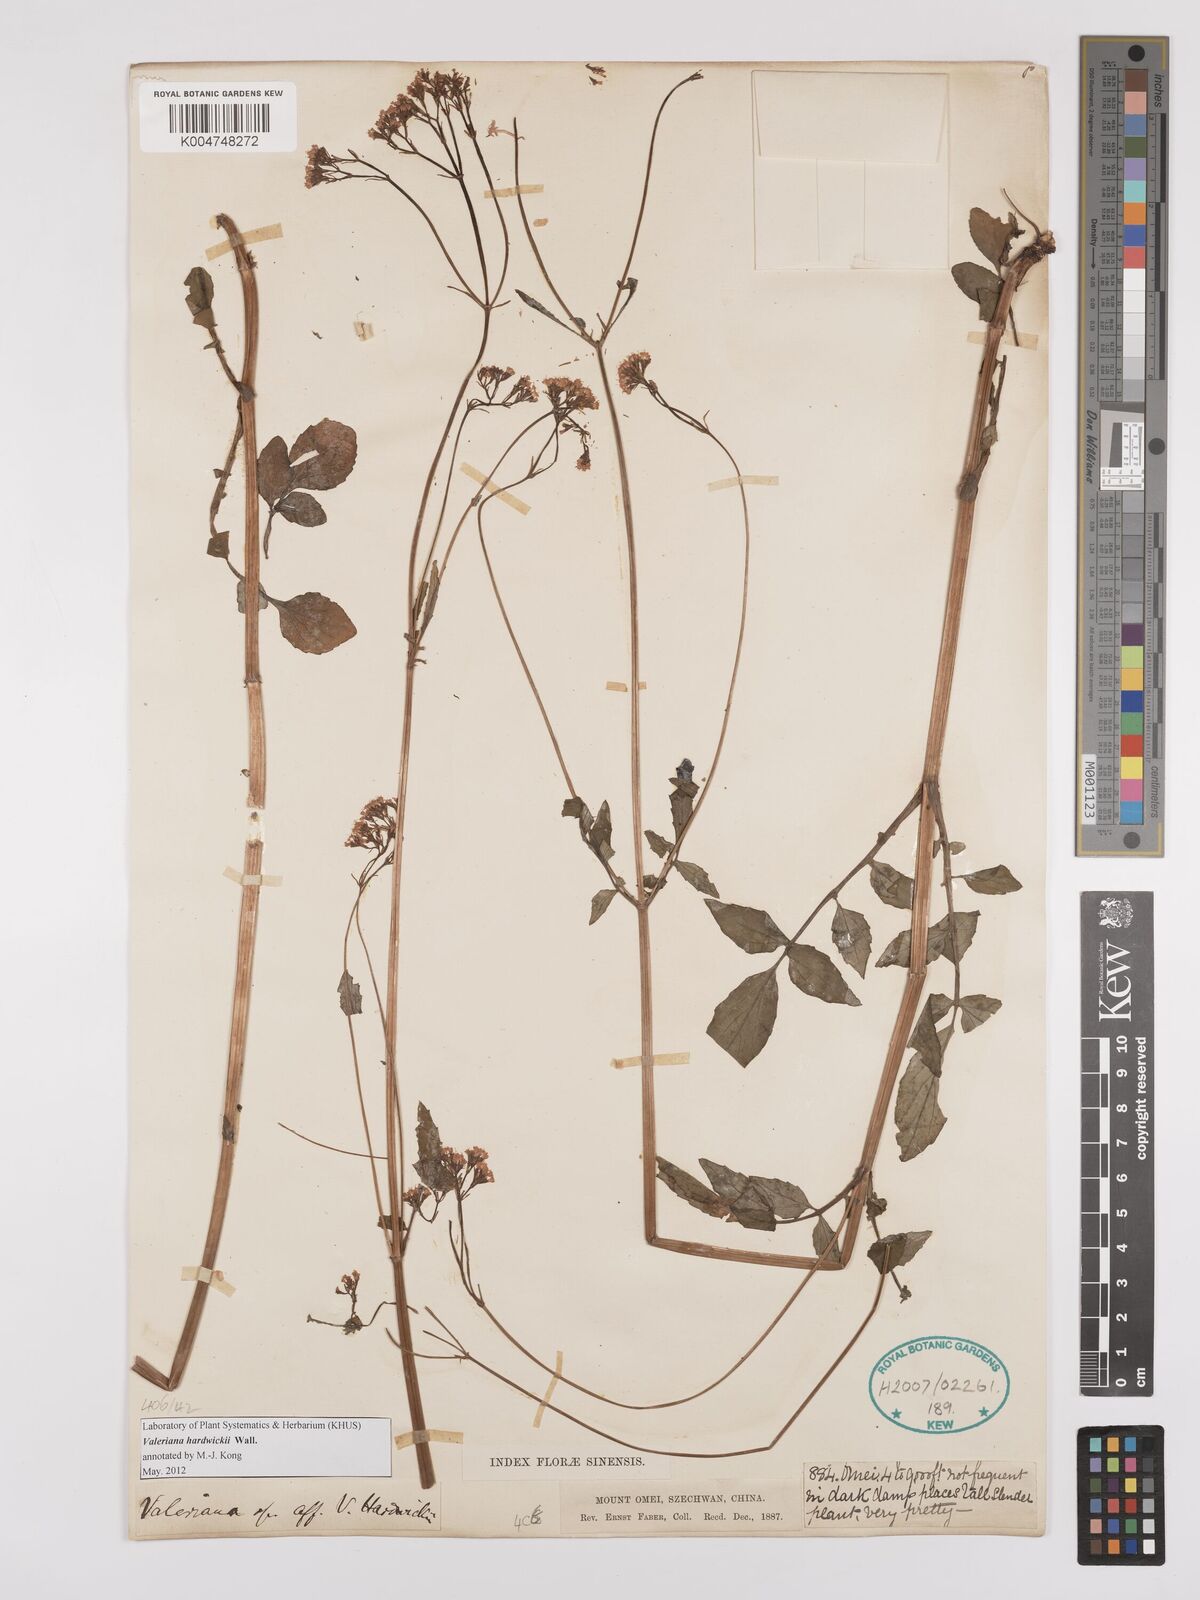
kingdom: Plantae
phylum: Tracheophyta
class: Magnoliopsida
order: Dipsacales
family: Caprifoliaceae
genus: Valeriana
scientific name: Valeriana hardwickei
